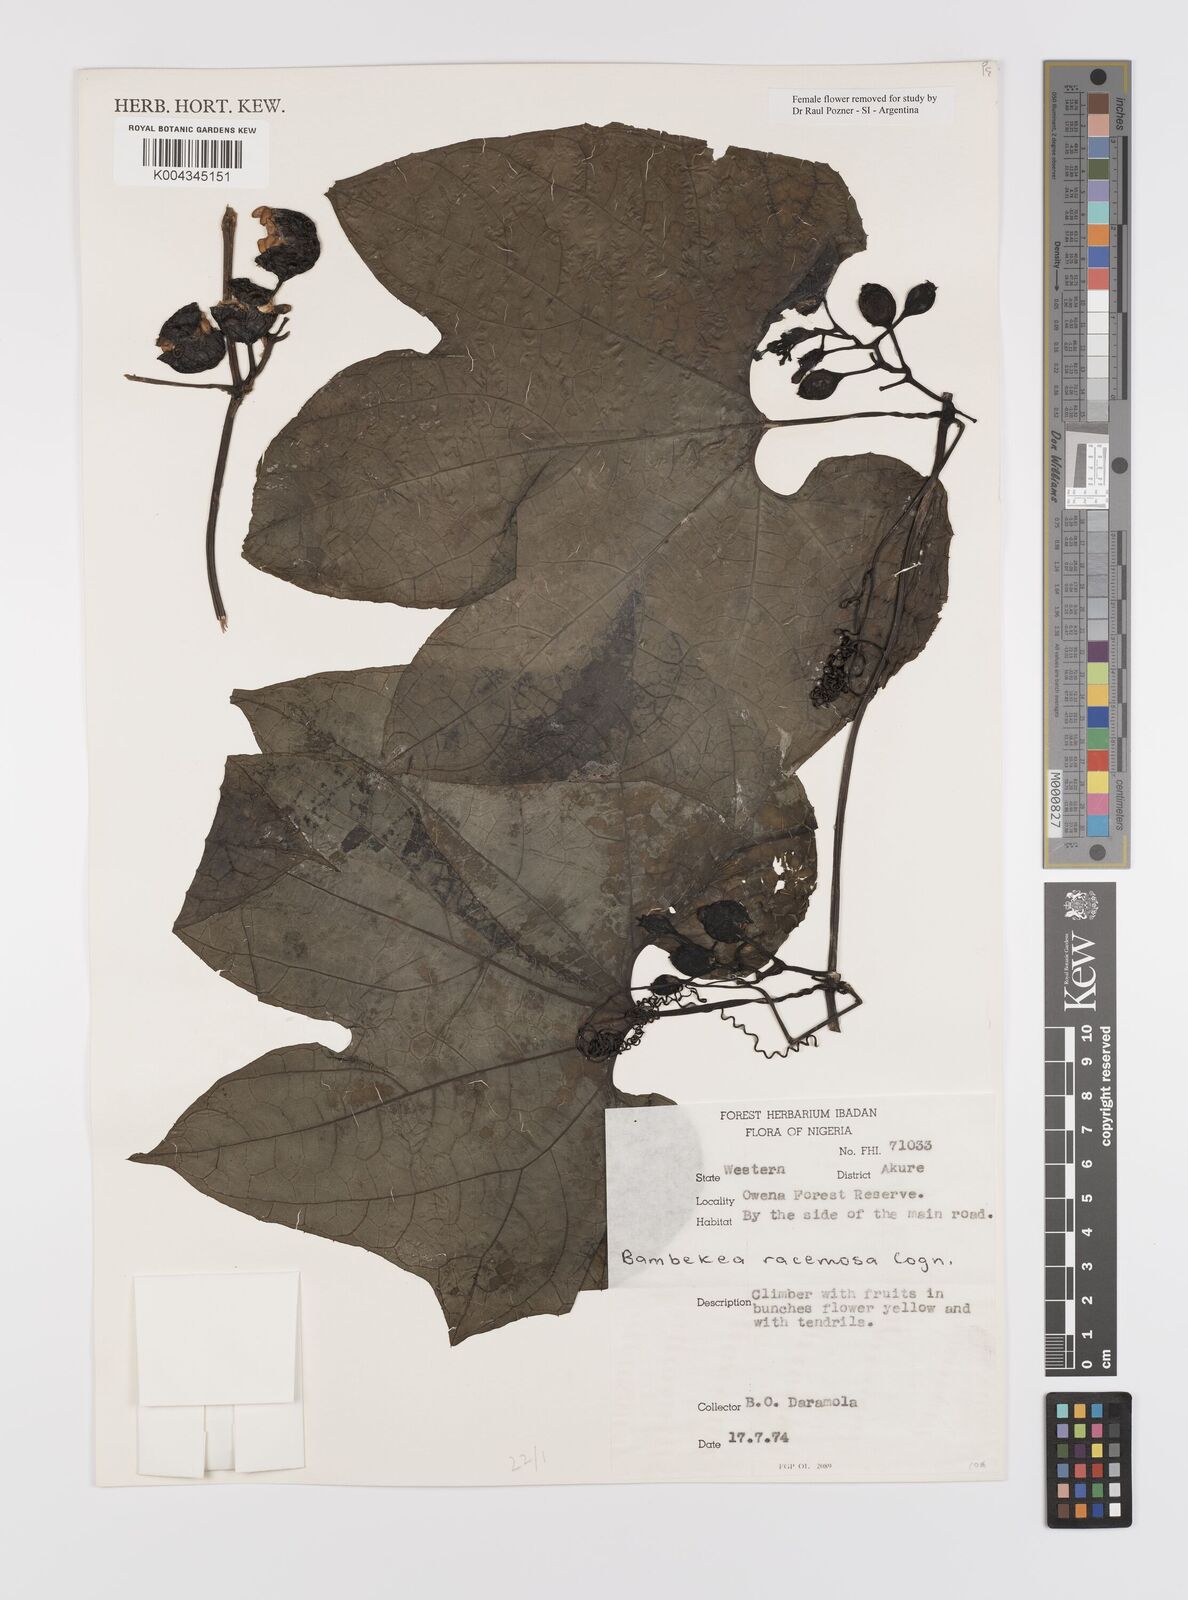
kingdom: Plantae
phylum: Tracheophyta
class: Magnoliopsida
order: Cucurbitales
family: Cucurbitaceae
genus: Bambekea
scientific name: Bambekea racemosa
